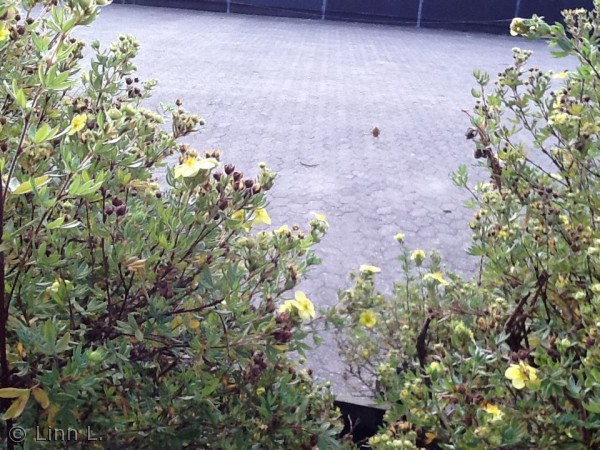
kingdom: Animalia
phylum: Arthropoda
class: Arachnida
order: Araneae
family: Araneidae
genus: Araneus
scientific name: Araneus diadematus
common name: Korsedderkop
